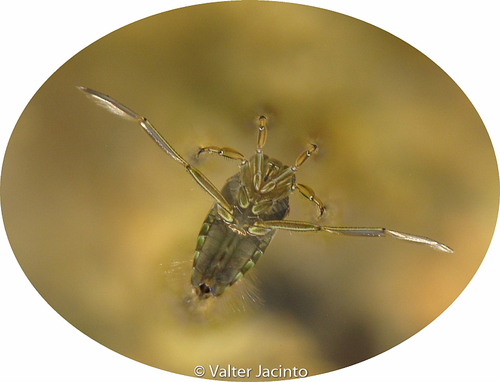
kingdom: Animalia
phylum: Arthropoda
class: Insecta
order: Hemiptera
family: Notonectidae
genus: Notonecta
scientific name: Notonecta
